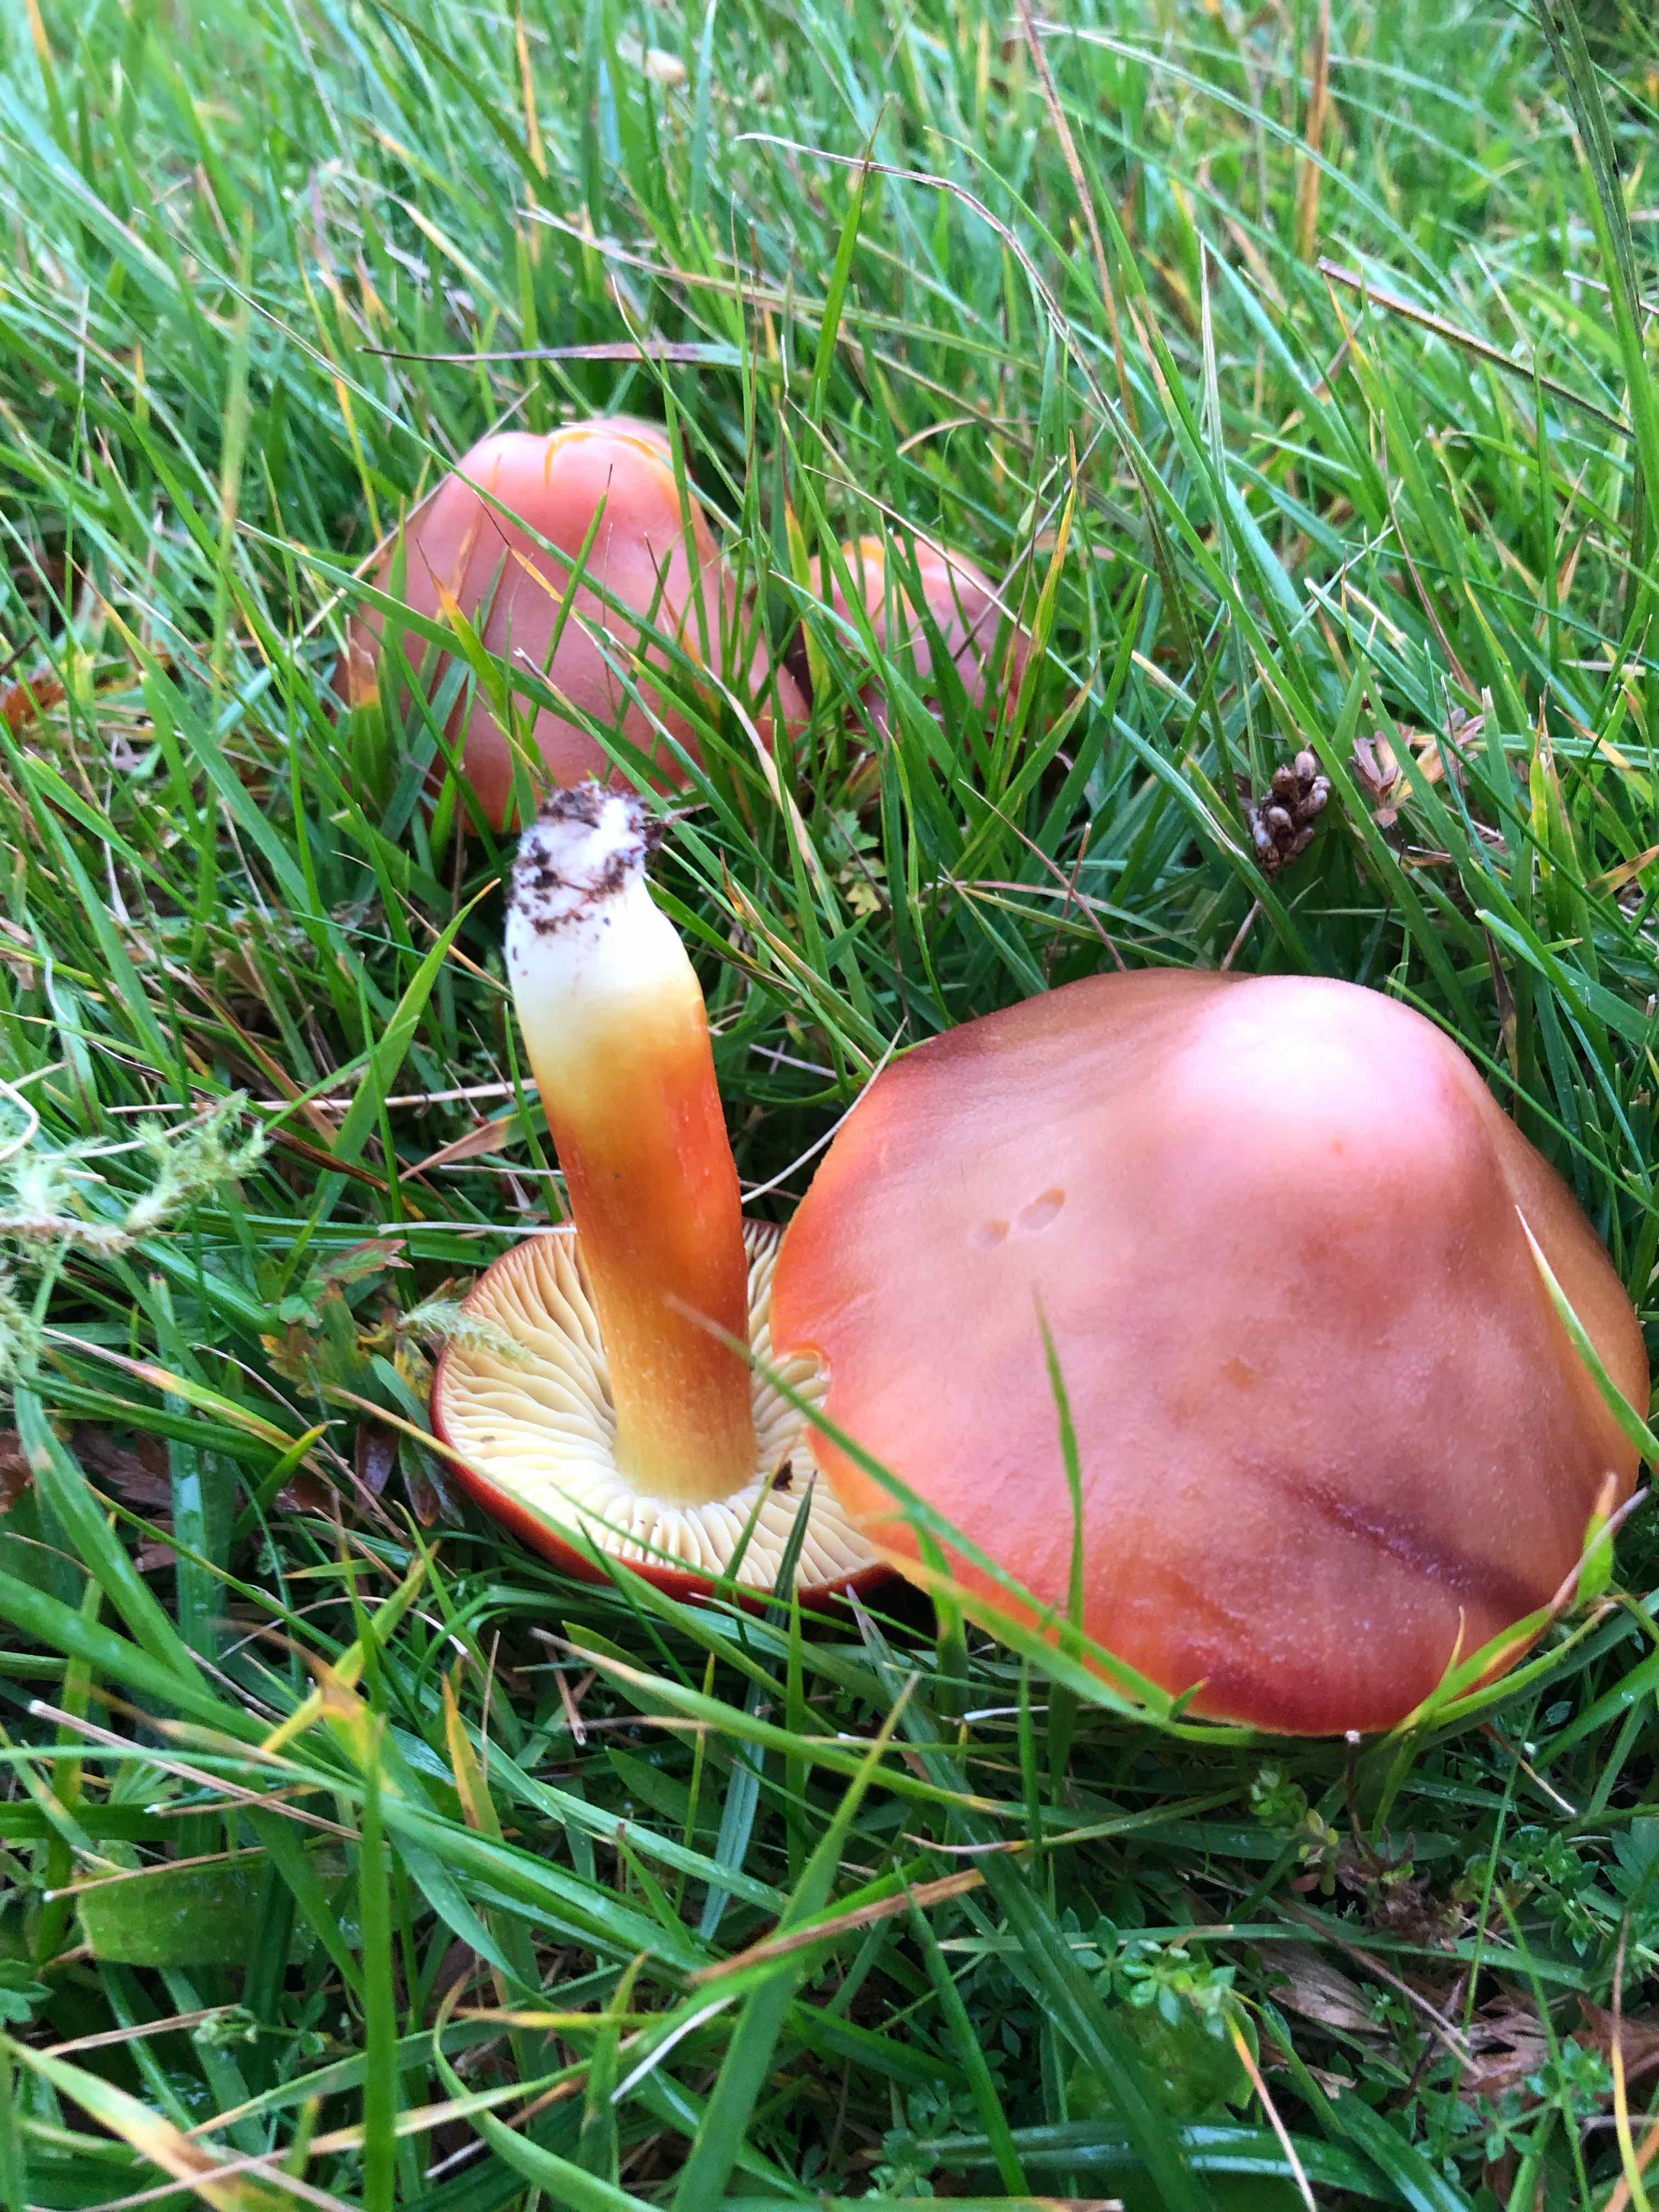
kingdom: Fungi
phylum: Basidiomycota
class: Agaricomycetes
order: Agaricales
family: Hygrophoraceae
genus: Hygrocybe
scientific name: Hygrocybe punicea
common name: skarlagen-vokshat
